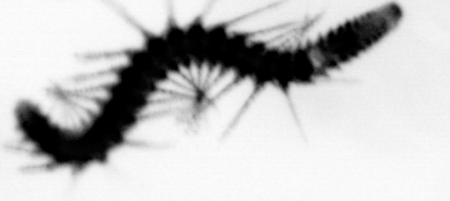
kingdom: Animalia
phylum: Annelida
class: Polychaeta
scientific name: Polychaeta
